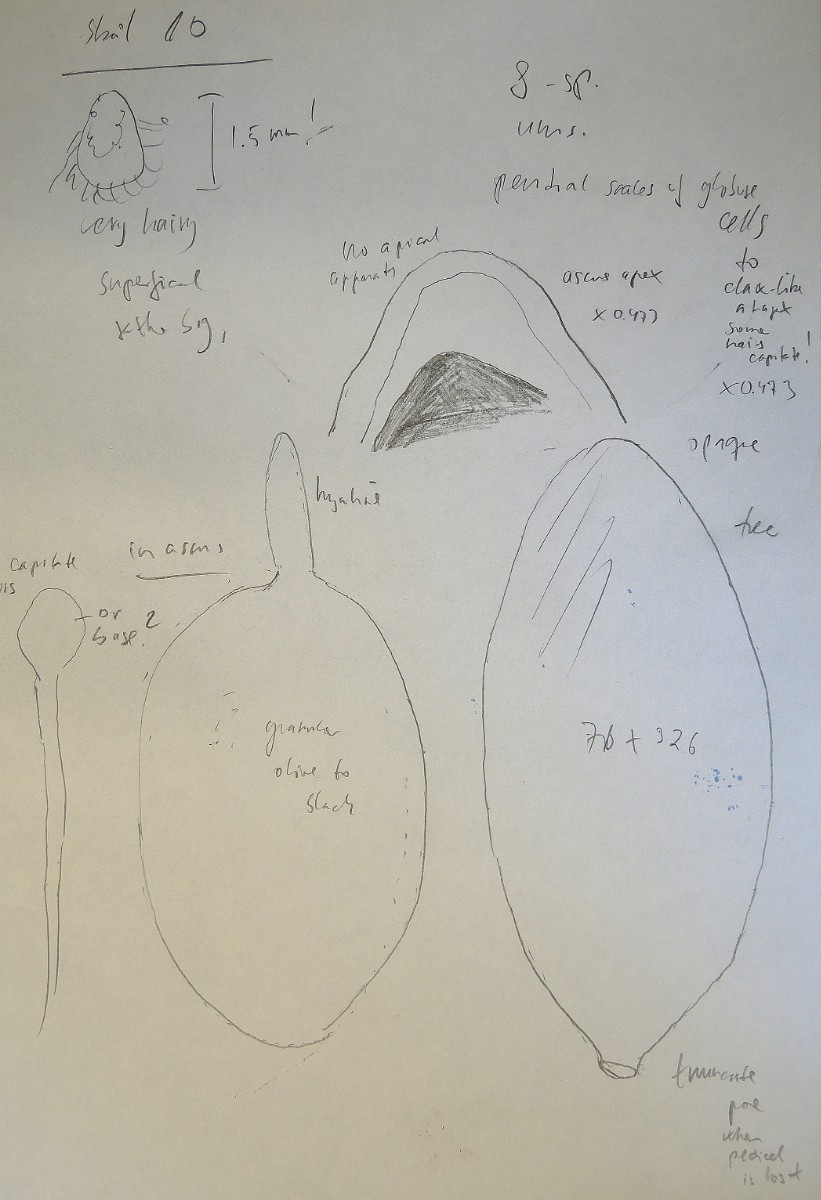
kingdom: Fungi
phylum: Ascomycota
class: Sordariomycetes
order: Sordariales
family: Lasiosphaeriaceae
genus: Schizothecium
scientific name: Schizothecium
